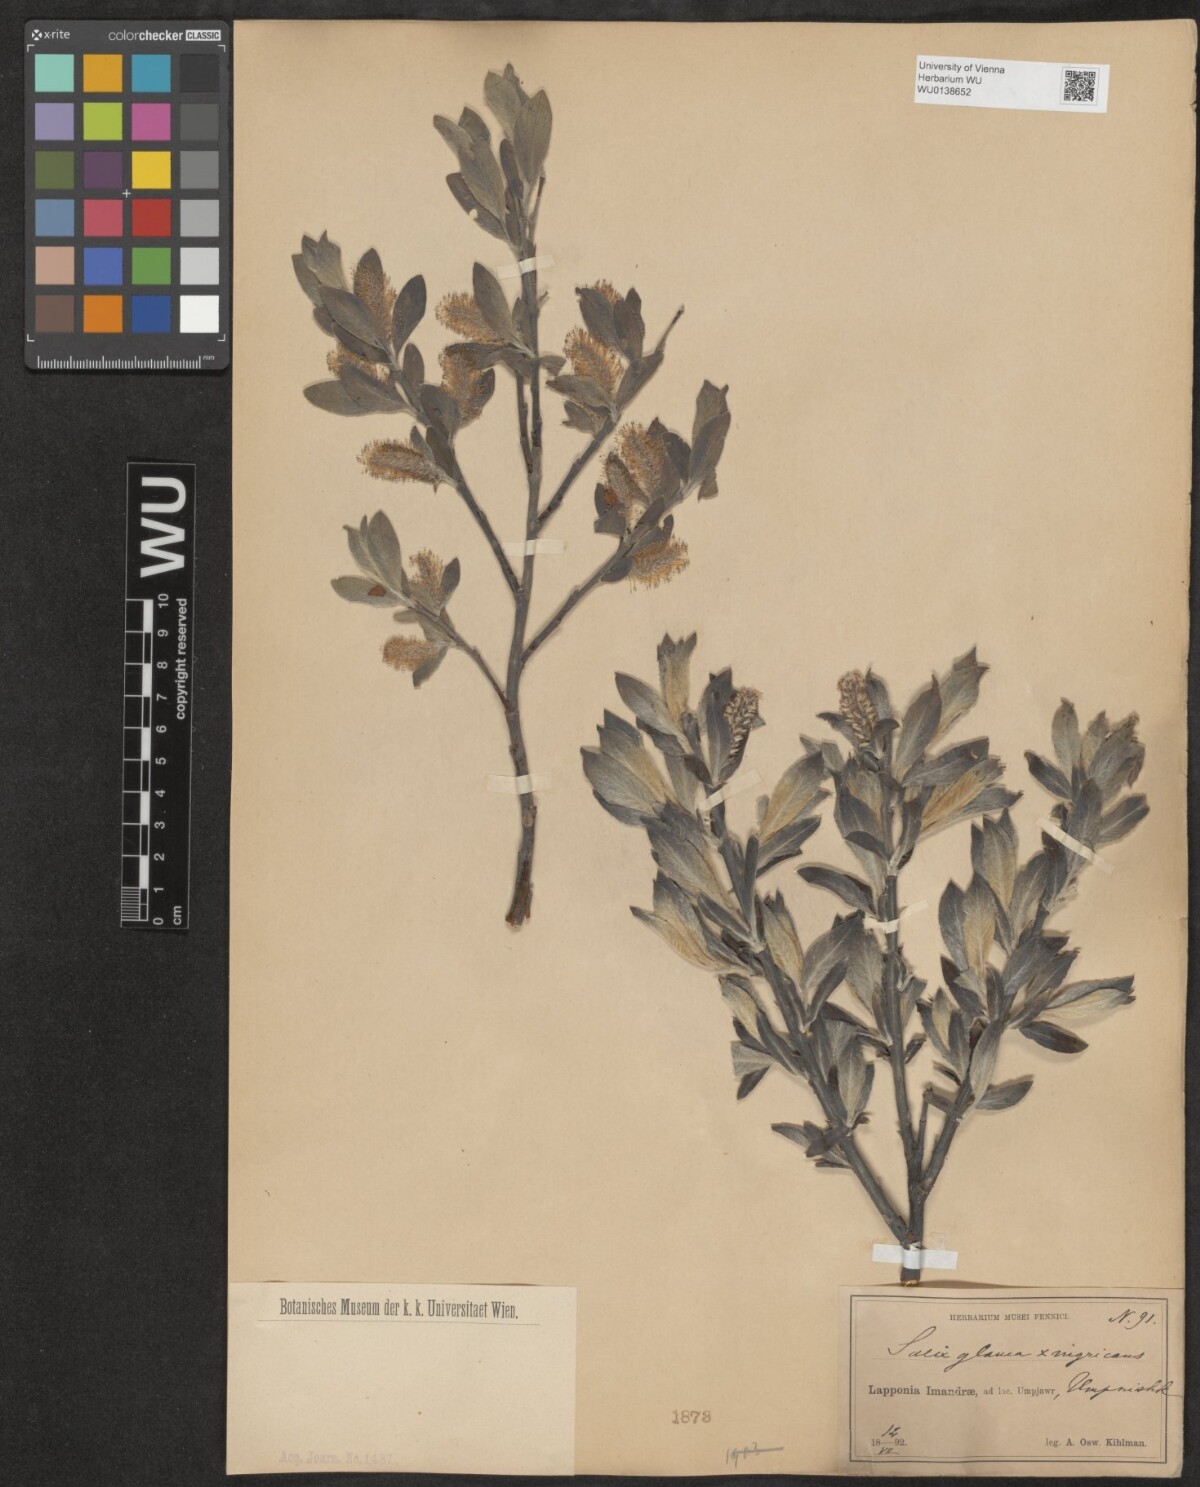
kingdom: Plantae
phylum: Tracheophyta
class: Magnoliopsida
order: Malpighiales
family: Salicaceae
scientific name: Salicaceae
